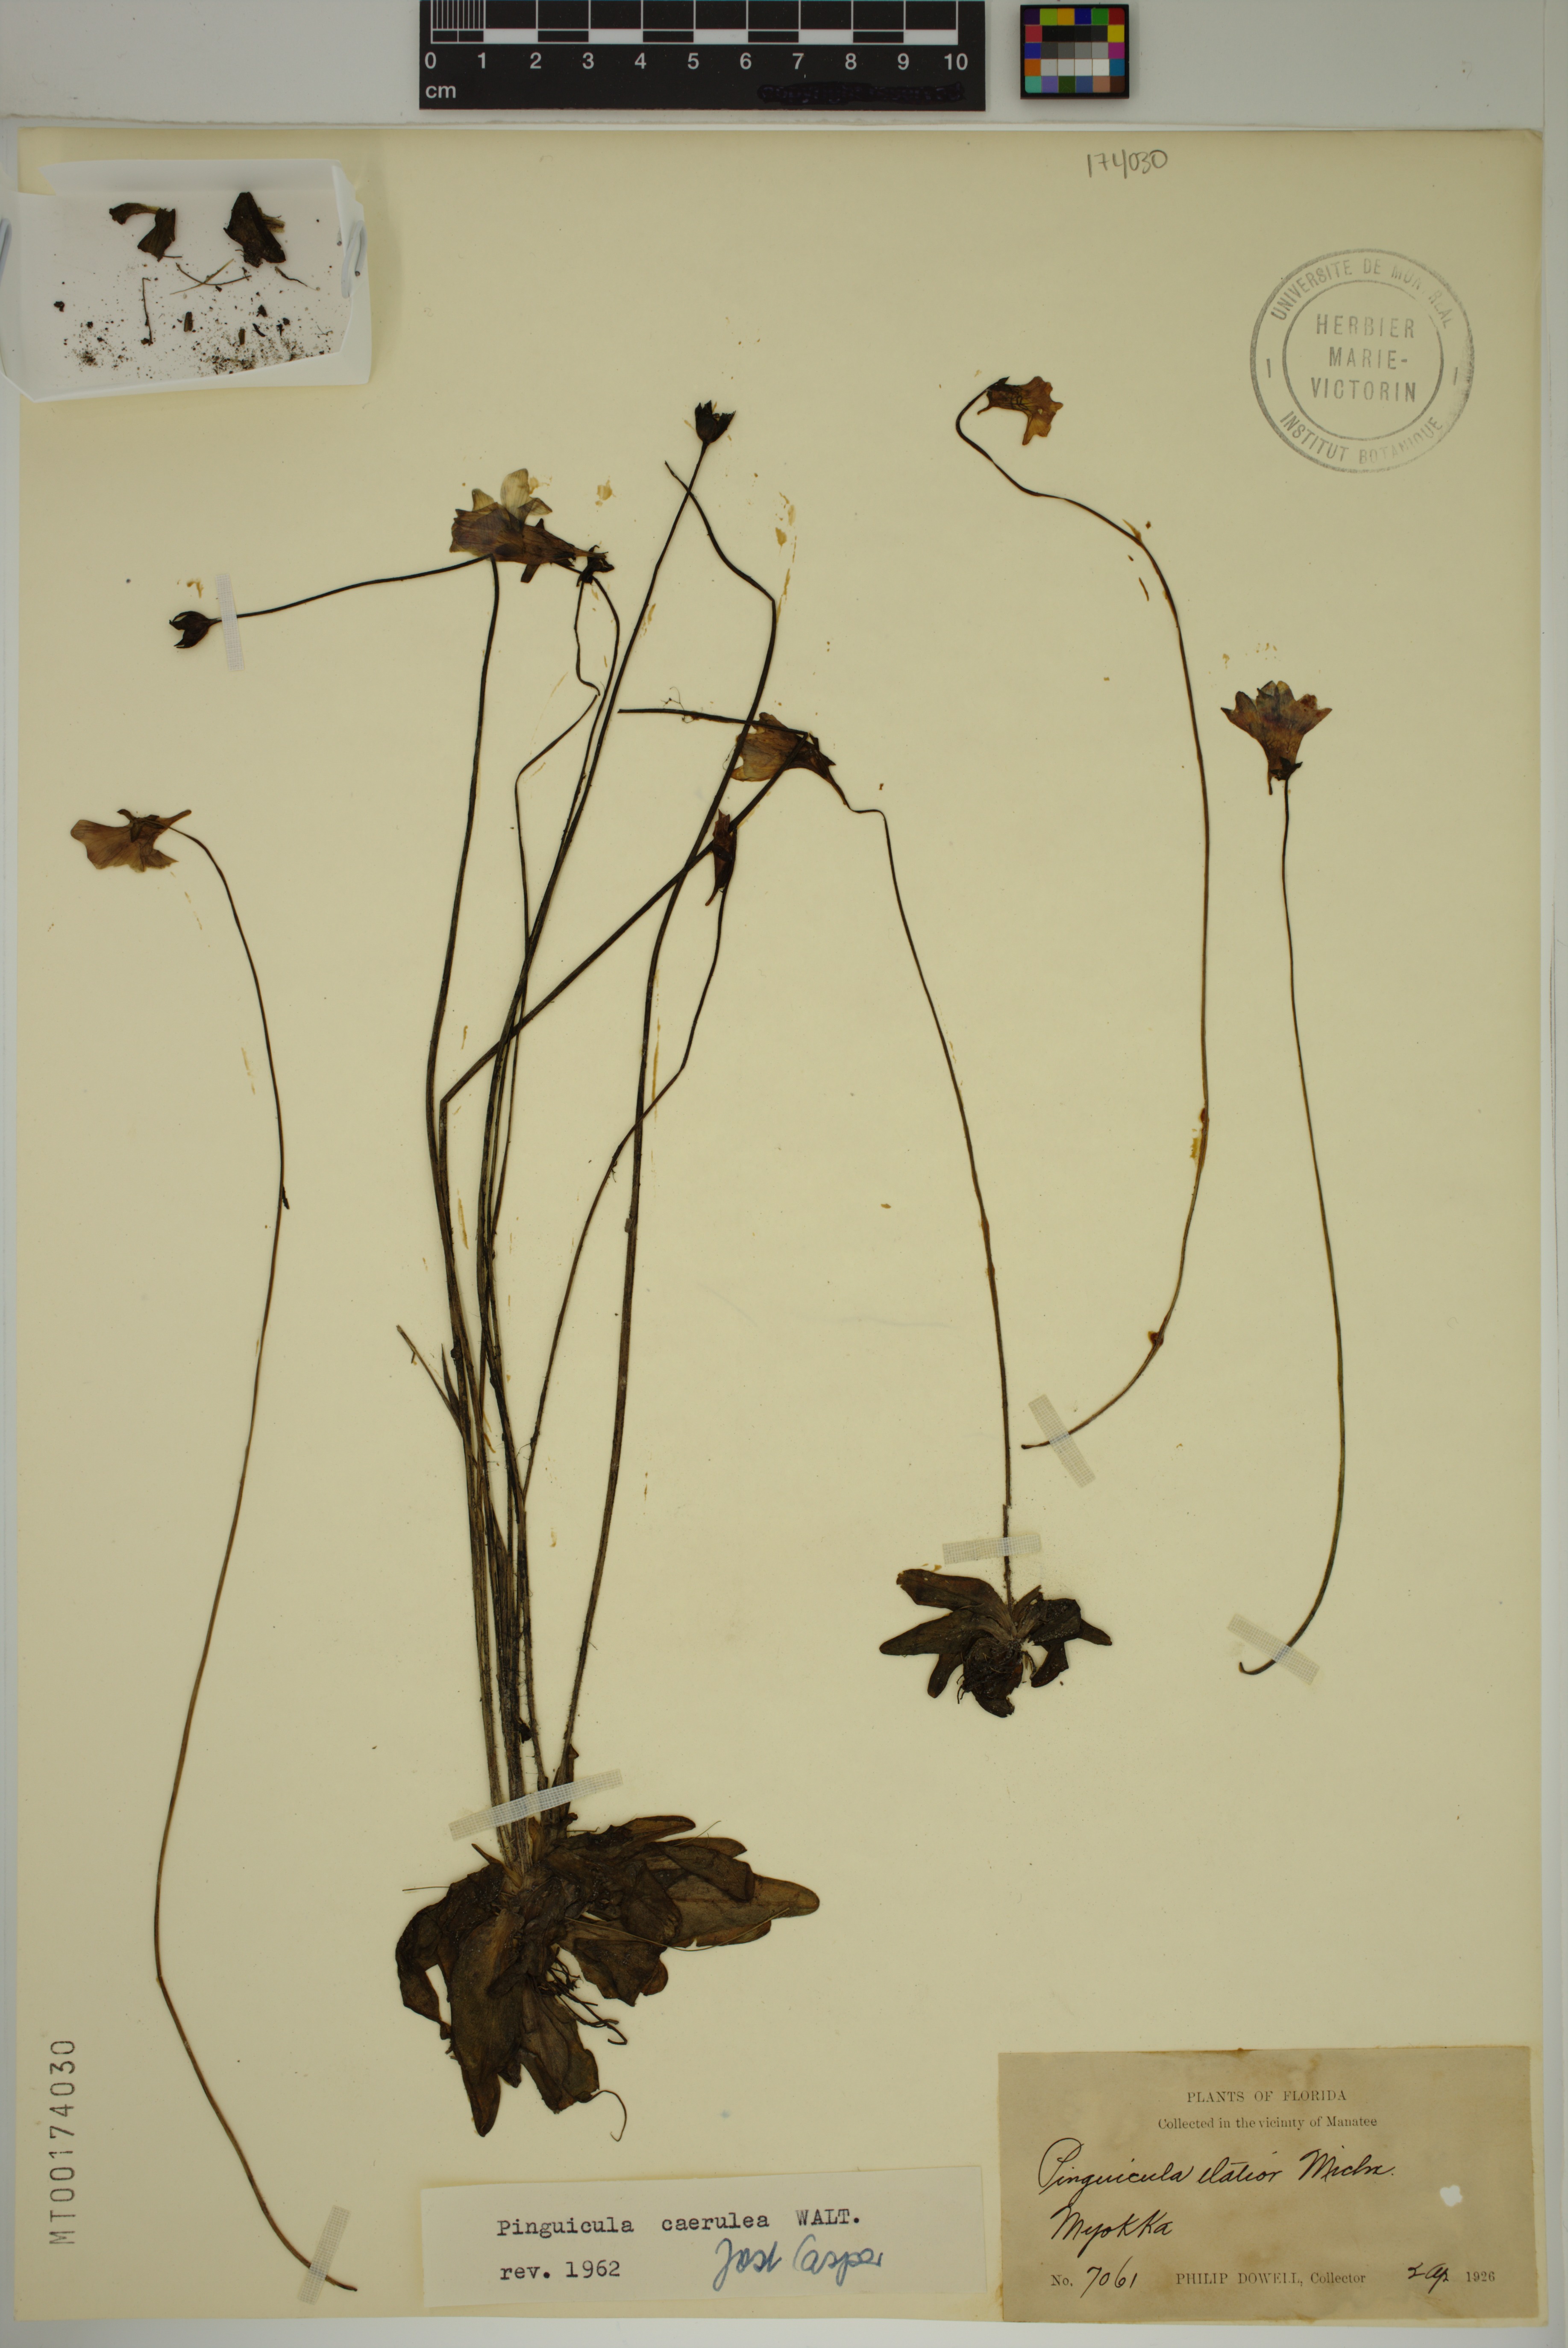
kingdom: Plantae
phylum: Tracheophyta
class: Magnoliopsida
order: Lamiales
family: Lentibulariaceae
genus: Pinguicula
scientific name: Pinguicula caerulea
